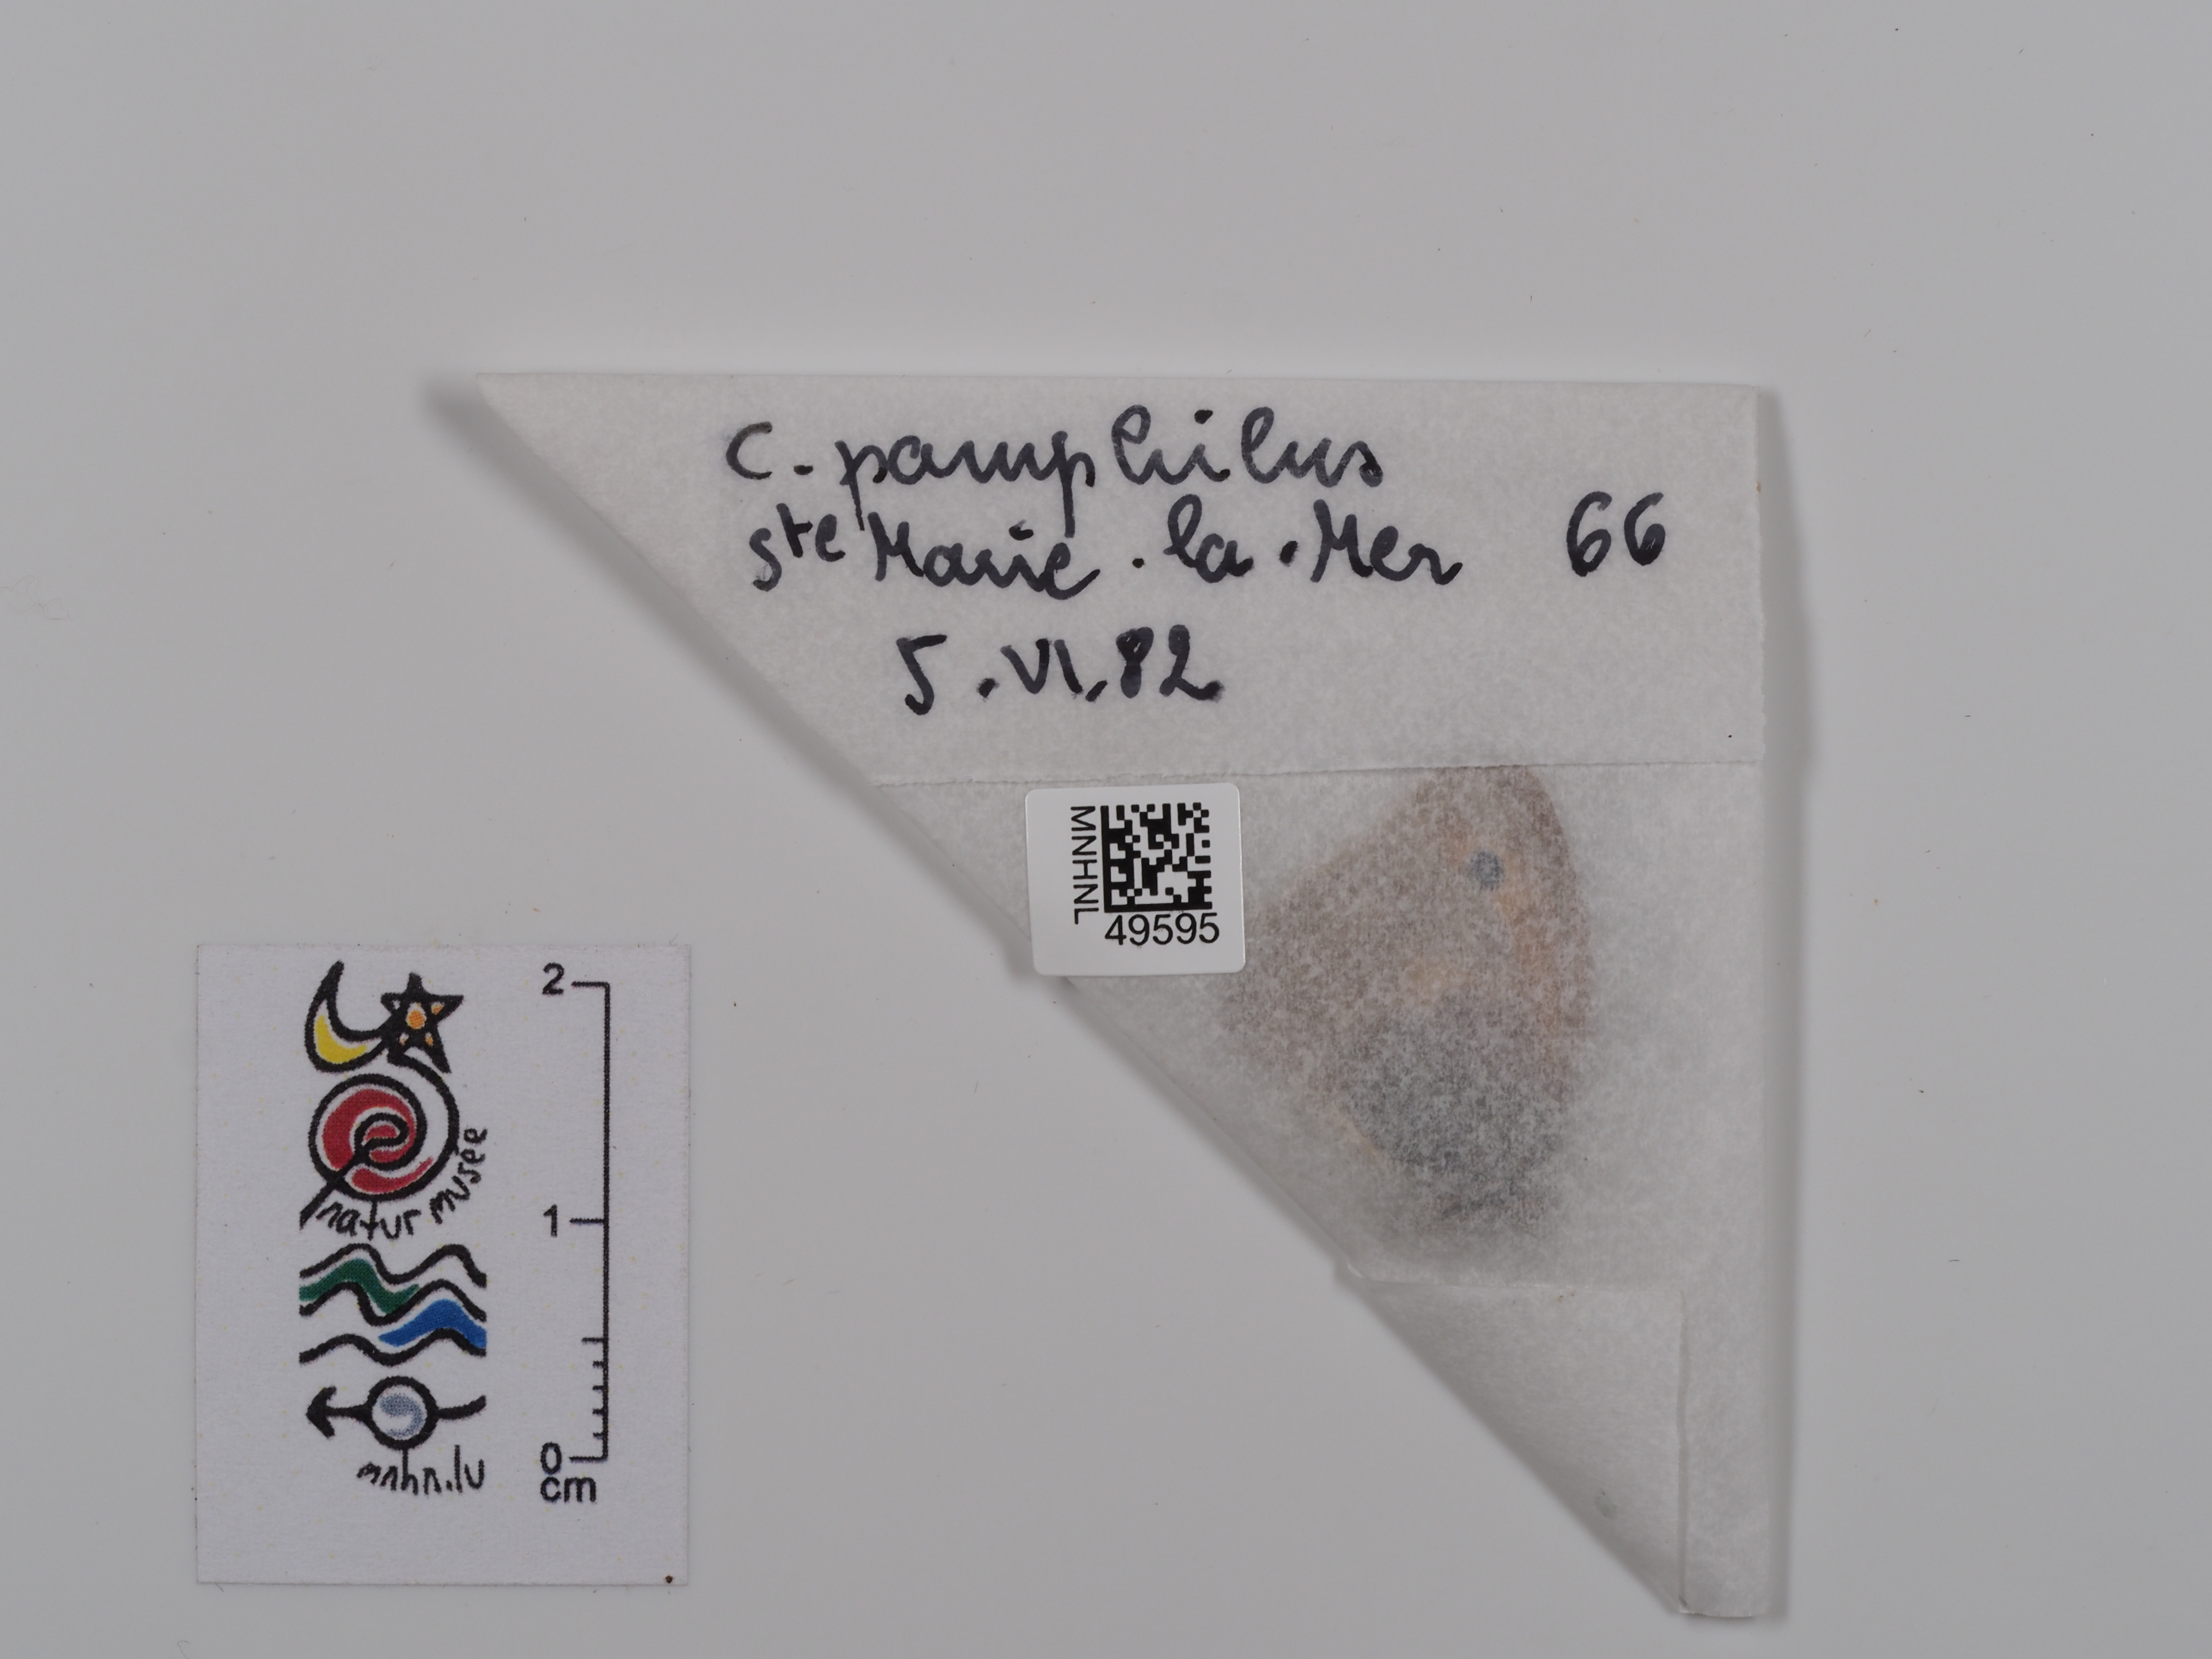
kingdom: Animalia
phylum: Arthropoda
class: Insecta
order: Lepidoptera
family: Nymphalidae
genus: Coenonympha
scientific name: Coenonympha pamphilus
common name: Small heath
